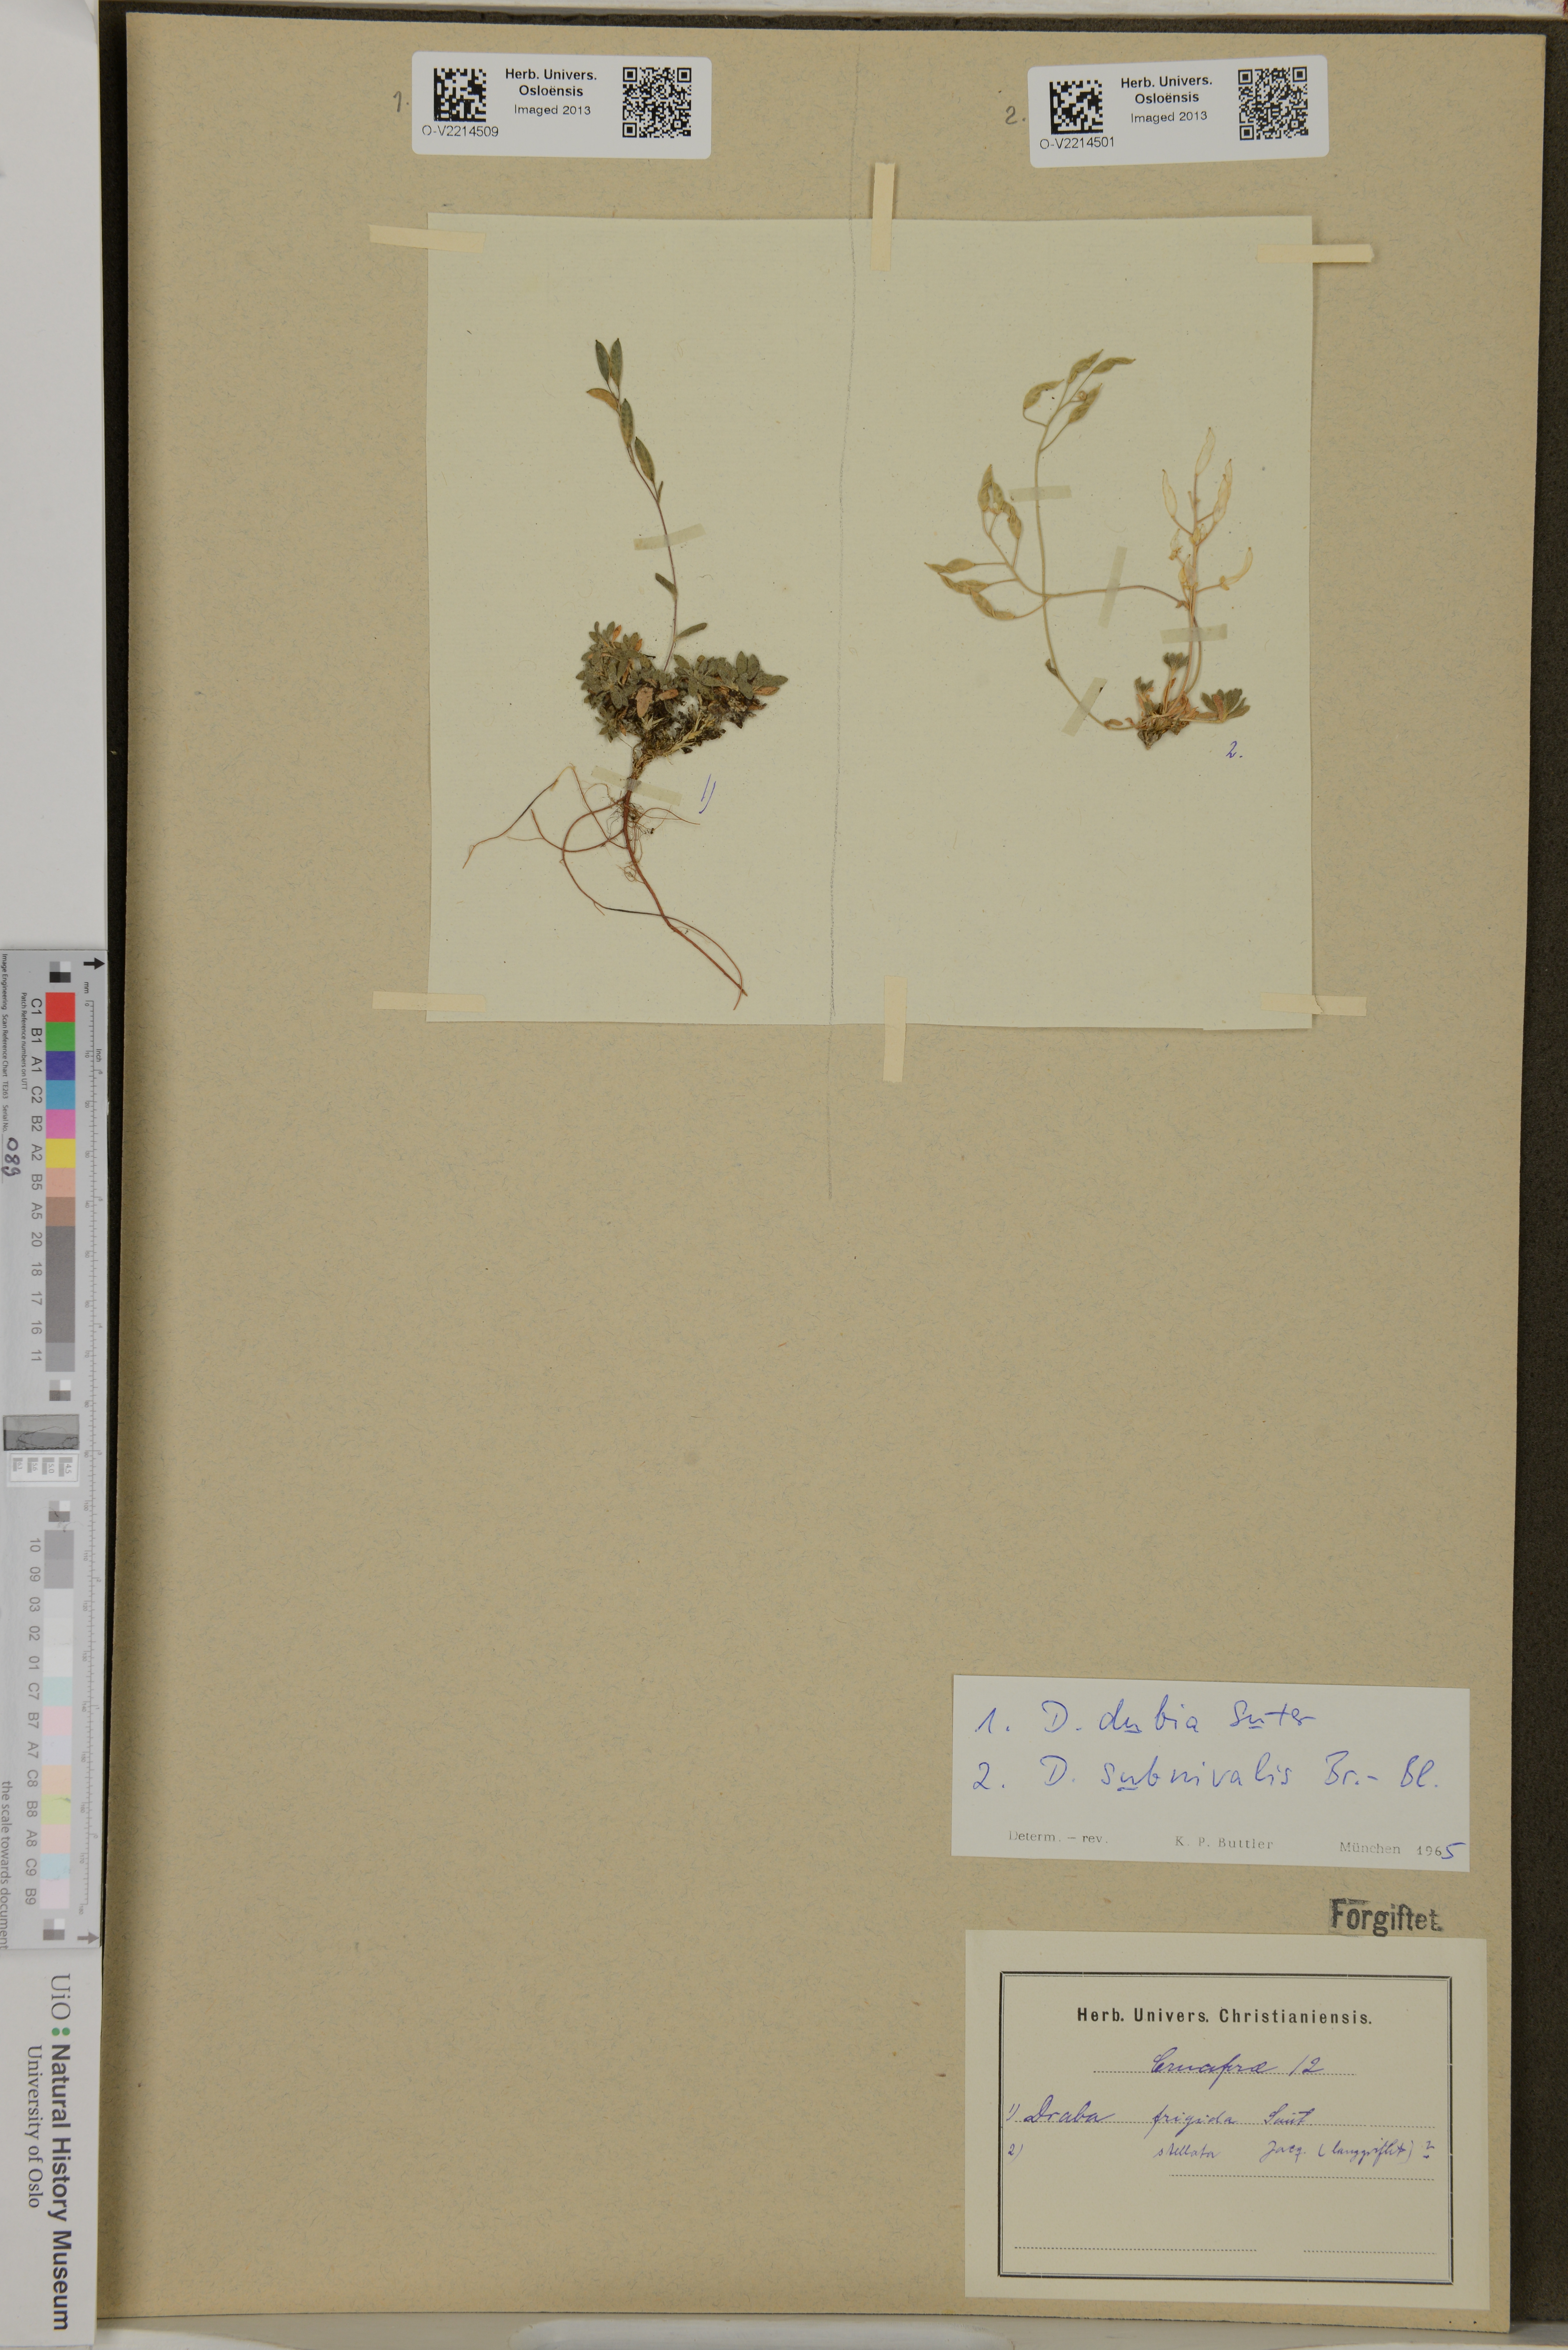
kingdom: Plantae
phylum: Tracheophyta
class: Magnoliopsida
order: Brassicales
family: Brassicaceae
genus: Draba
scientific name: Draba frigida
